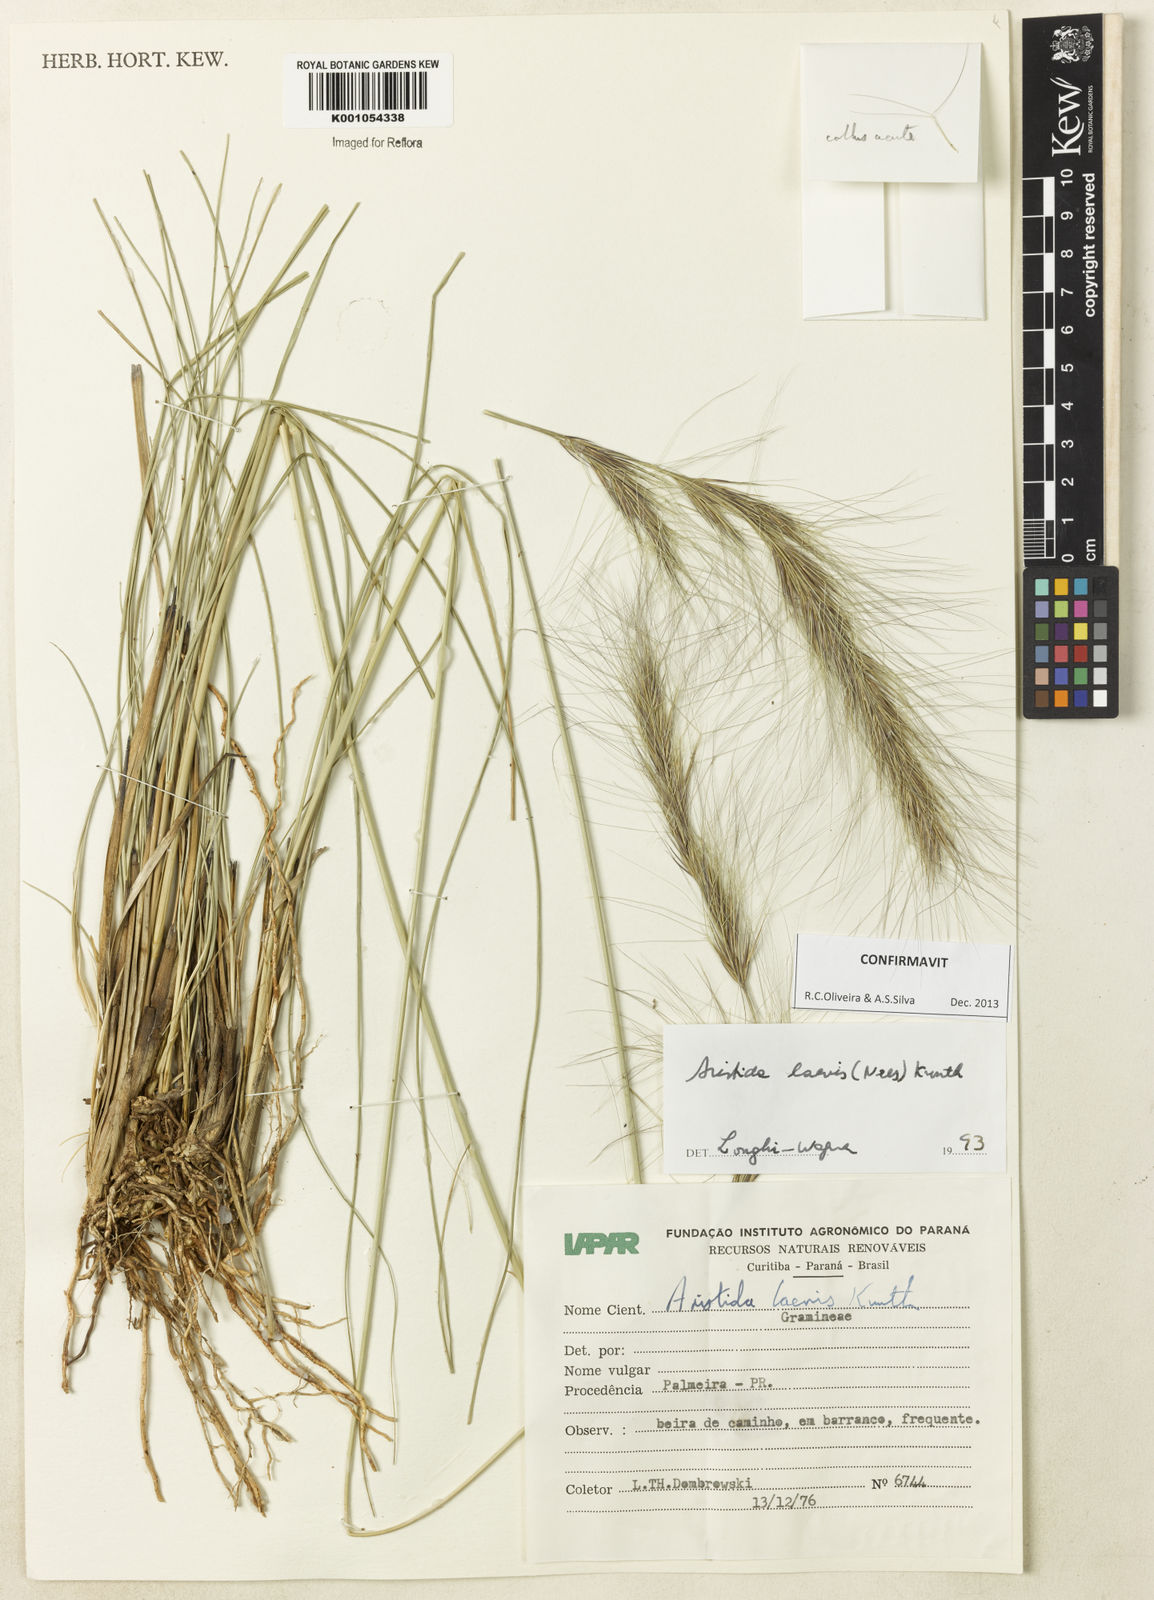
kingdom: Plantae
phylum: Tracheophyta
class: Liliopsida
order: Poales
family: Poaceae
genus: Aristida
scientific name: Aristida laevis
